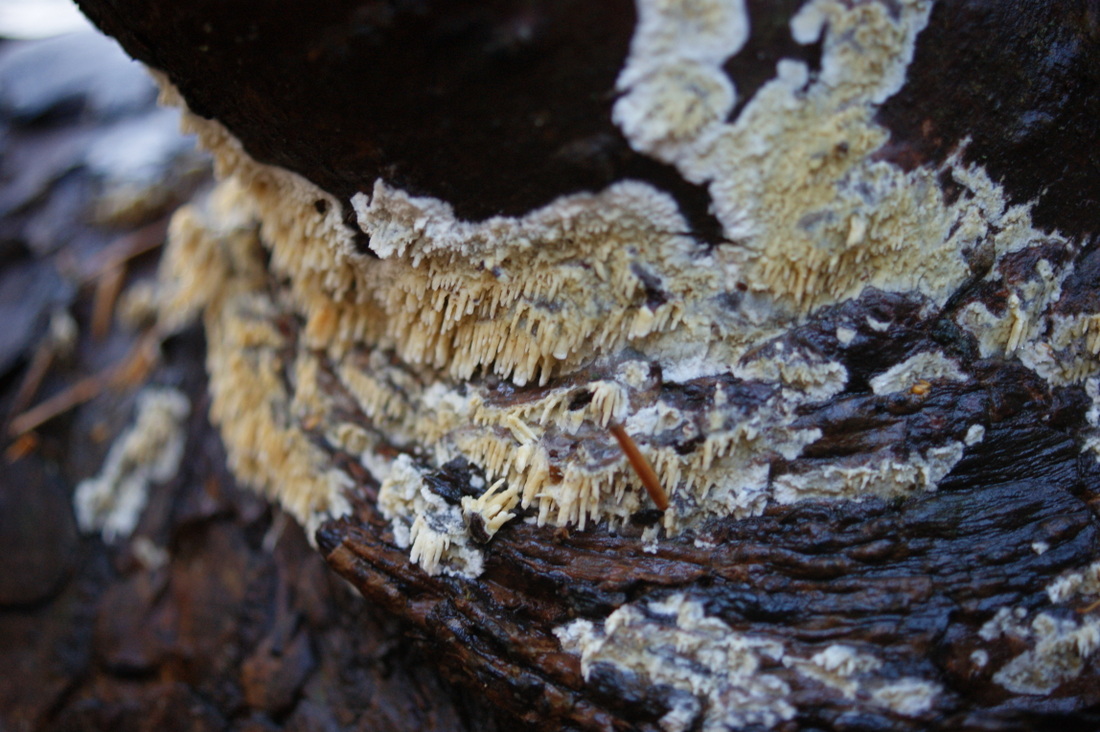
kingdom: Fungi
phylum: Basidiomycota
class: Agaricomycetes
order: Hymenochaetales
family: Schizoporaceae
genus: Xylodon
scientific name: Xylodon radula
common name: grovtandet kalkskind
